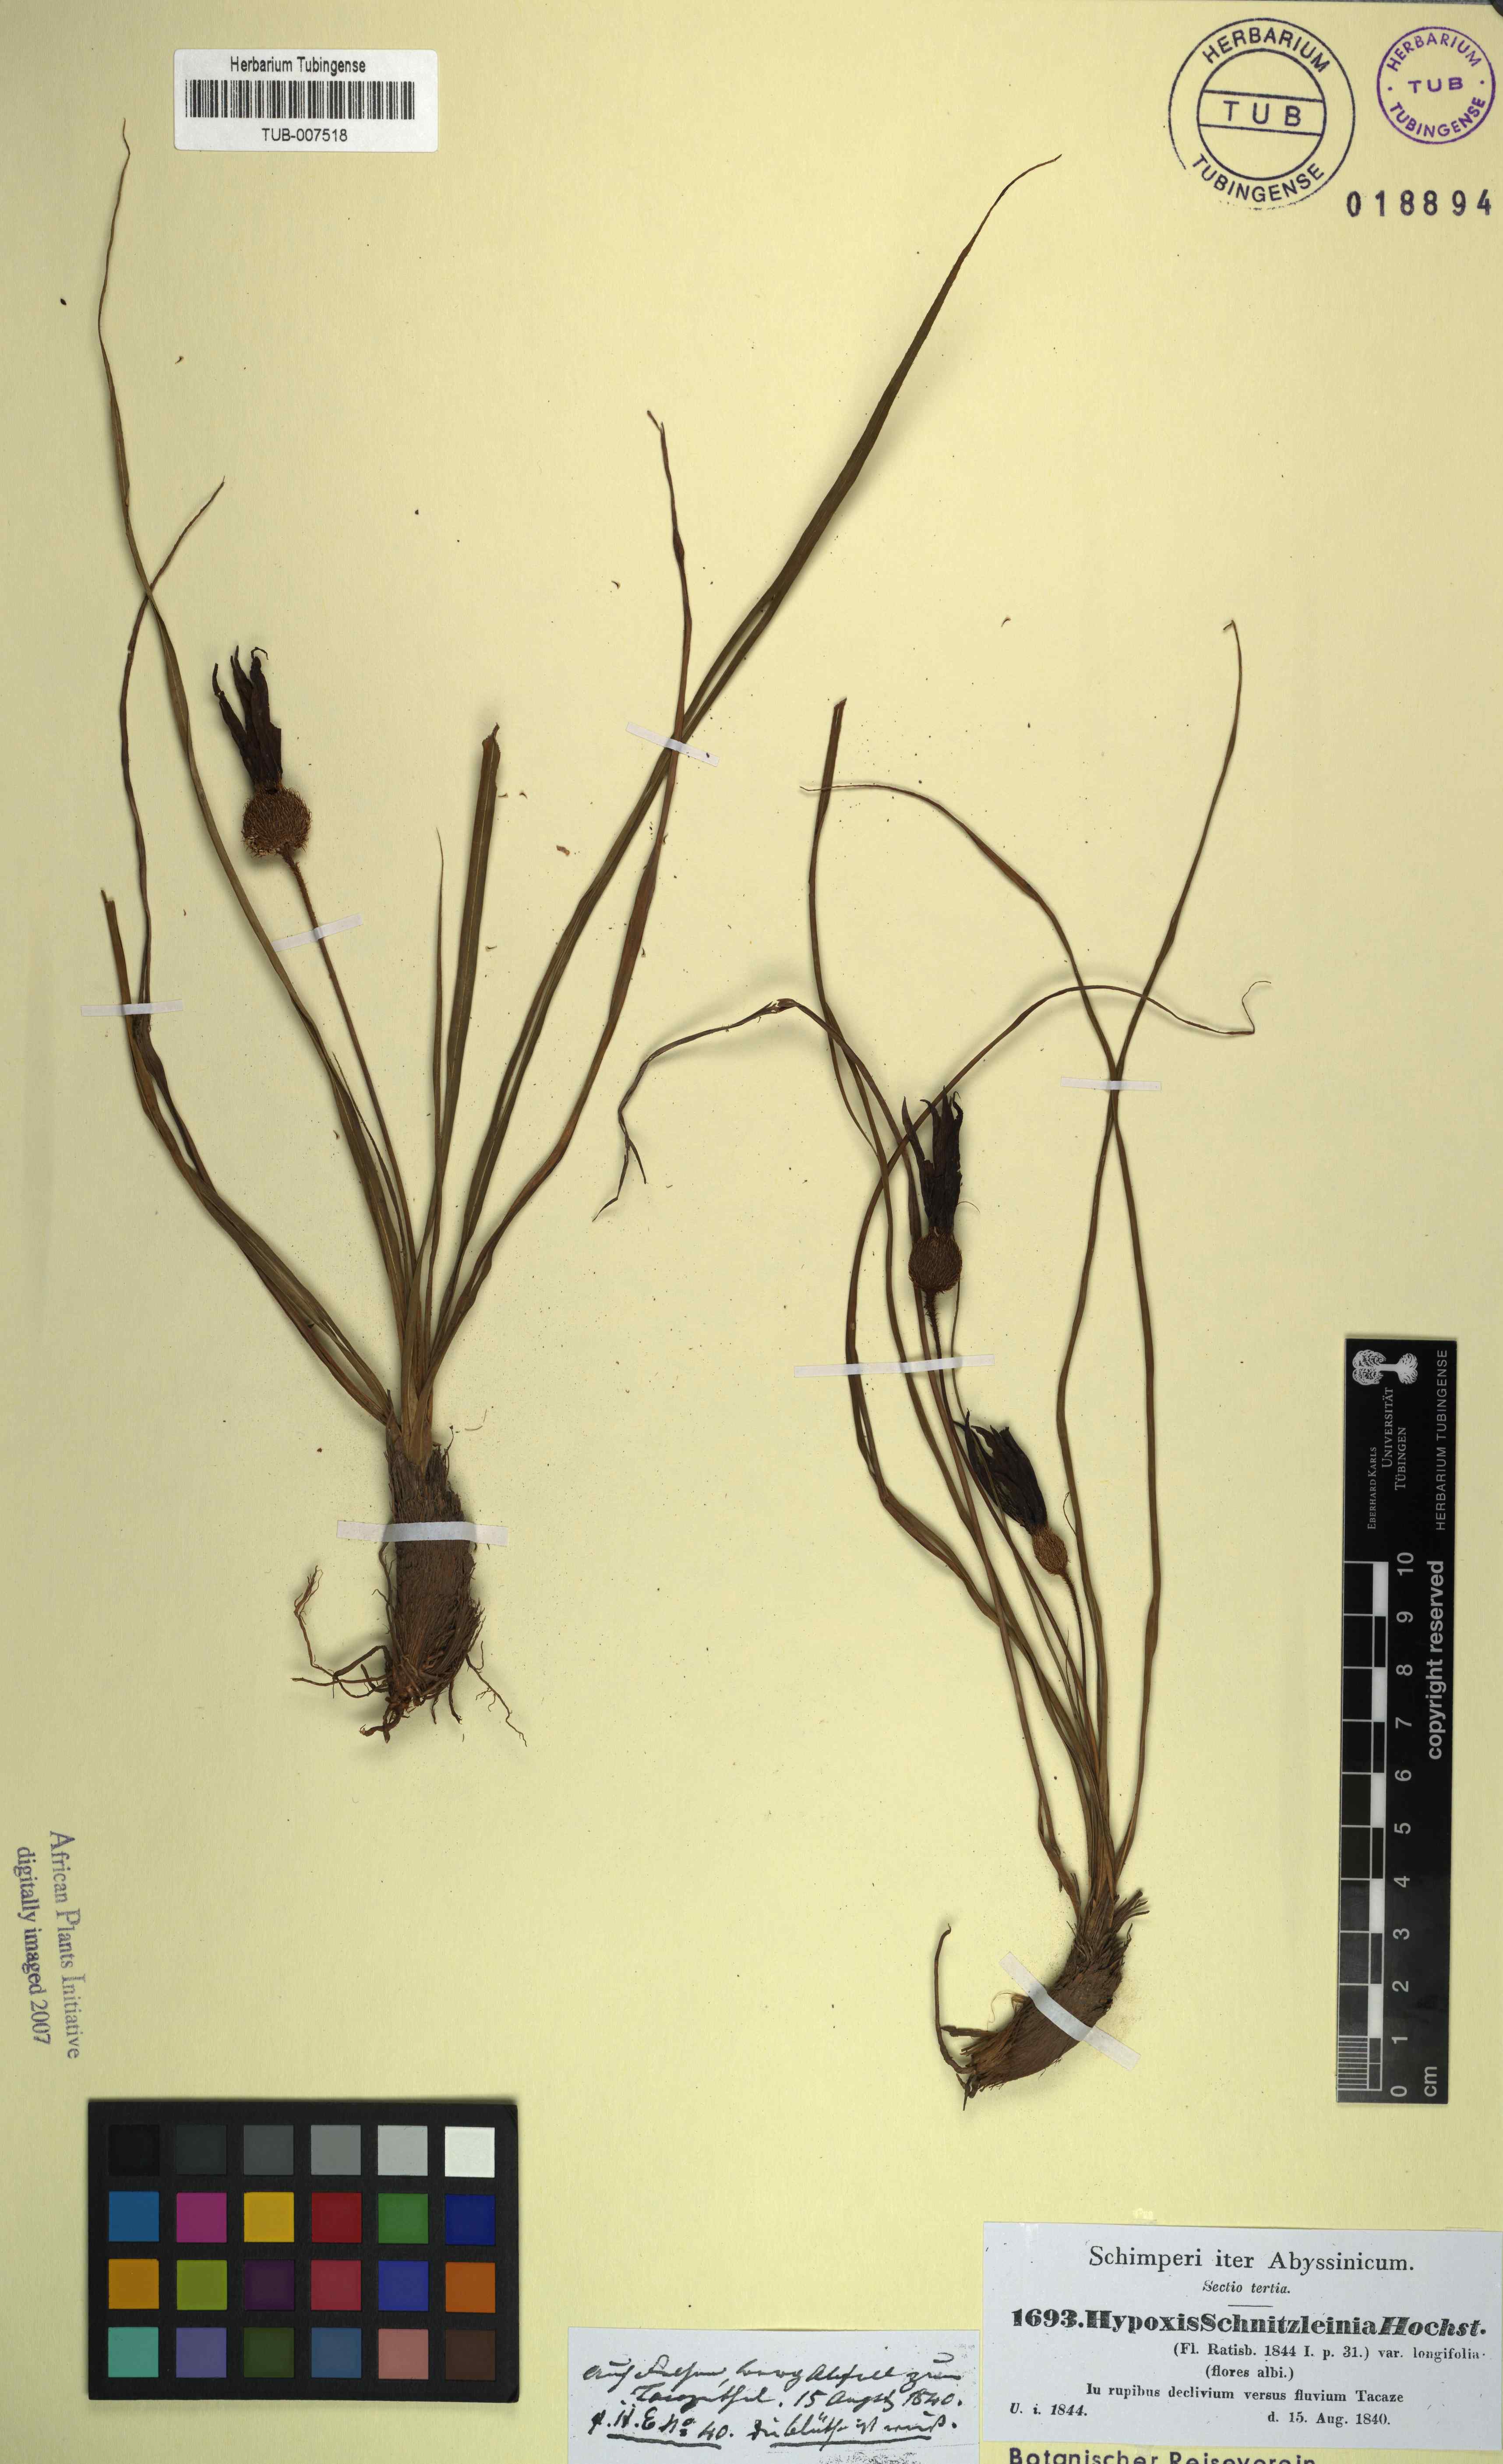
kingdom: Plantae
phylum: Tracheophyta
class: Liliopsida
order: Pandanales
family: Velloziaceae
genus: Xerophyta
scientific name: Xerophyta schnizleinia
